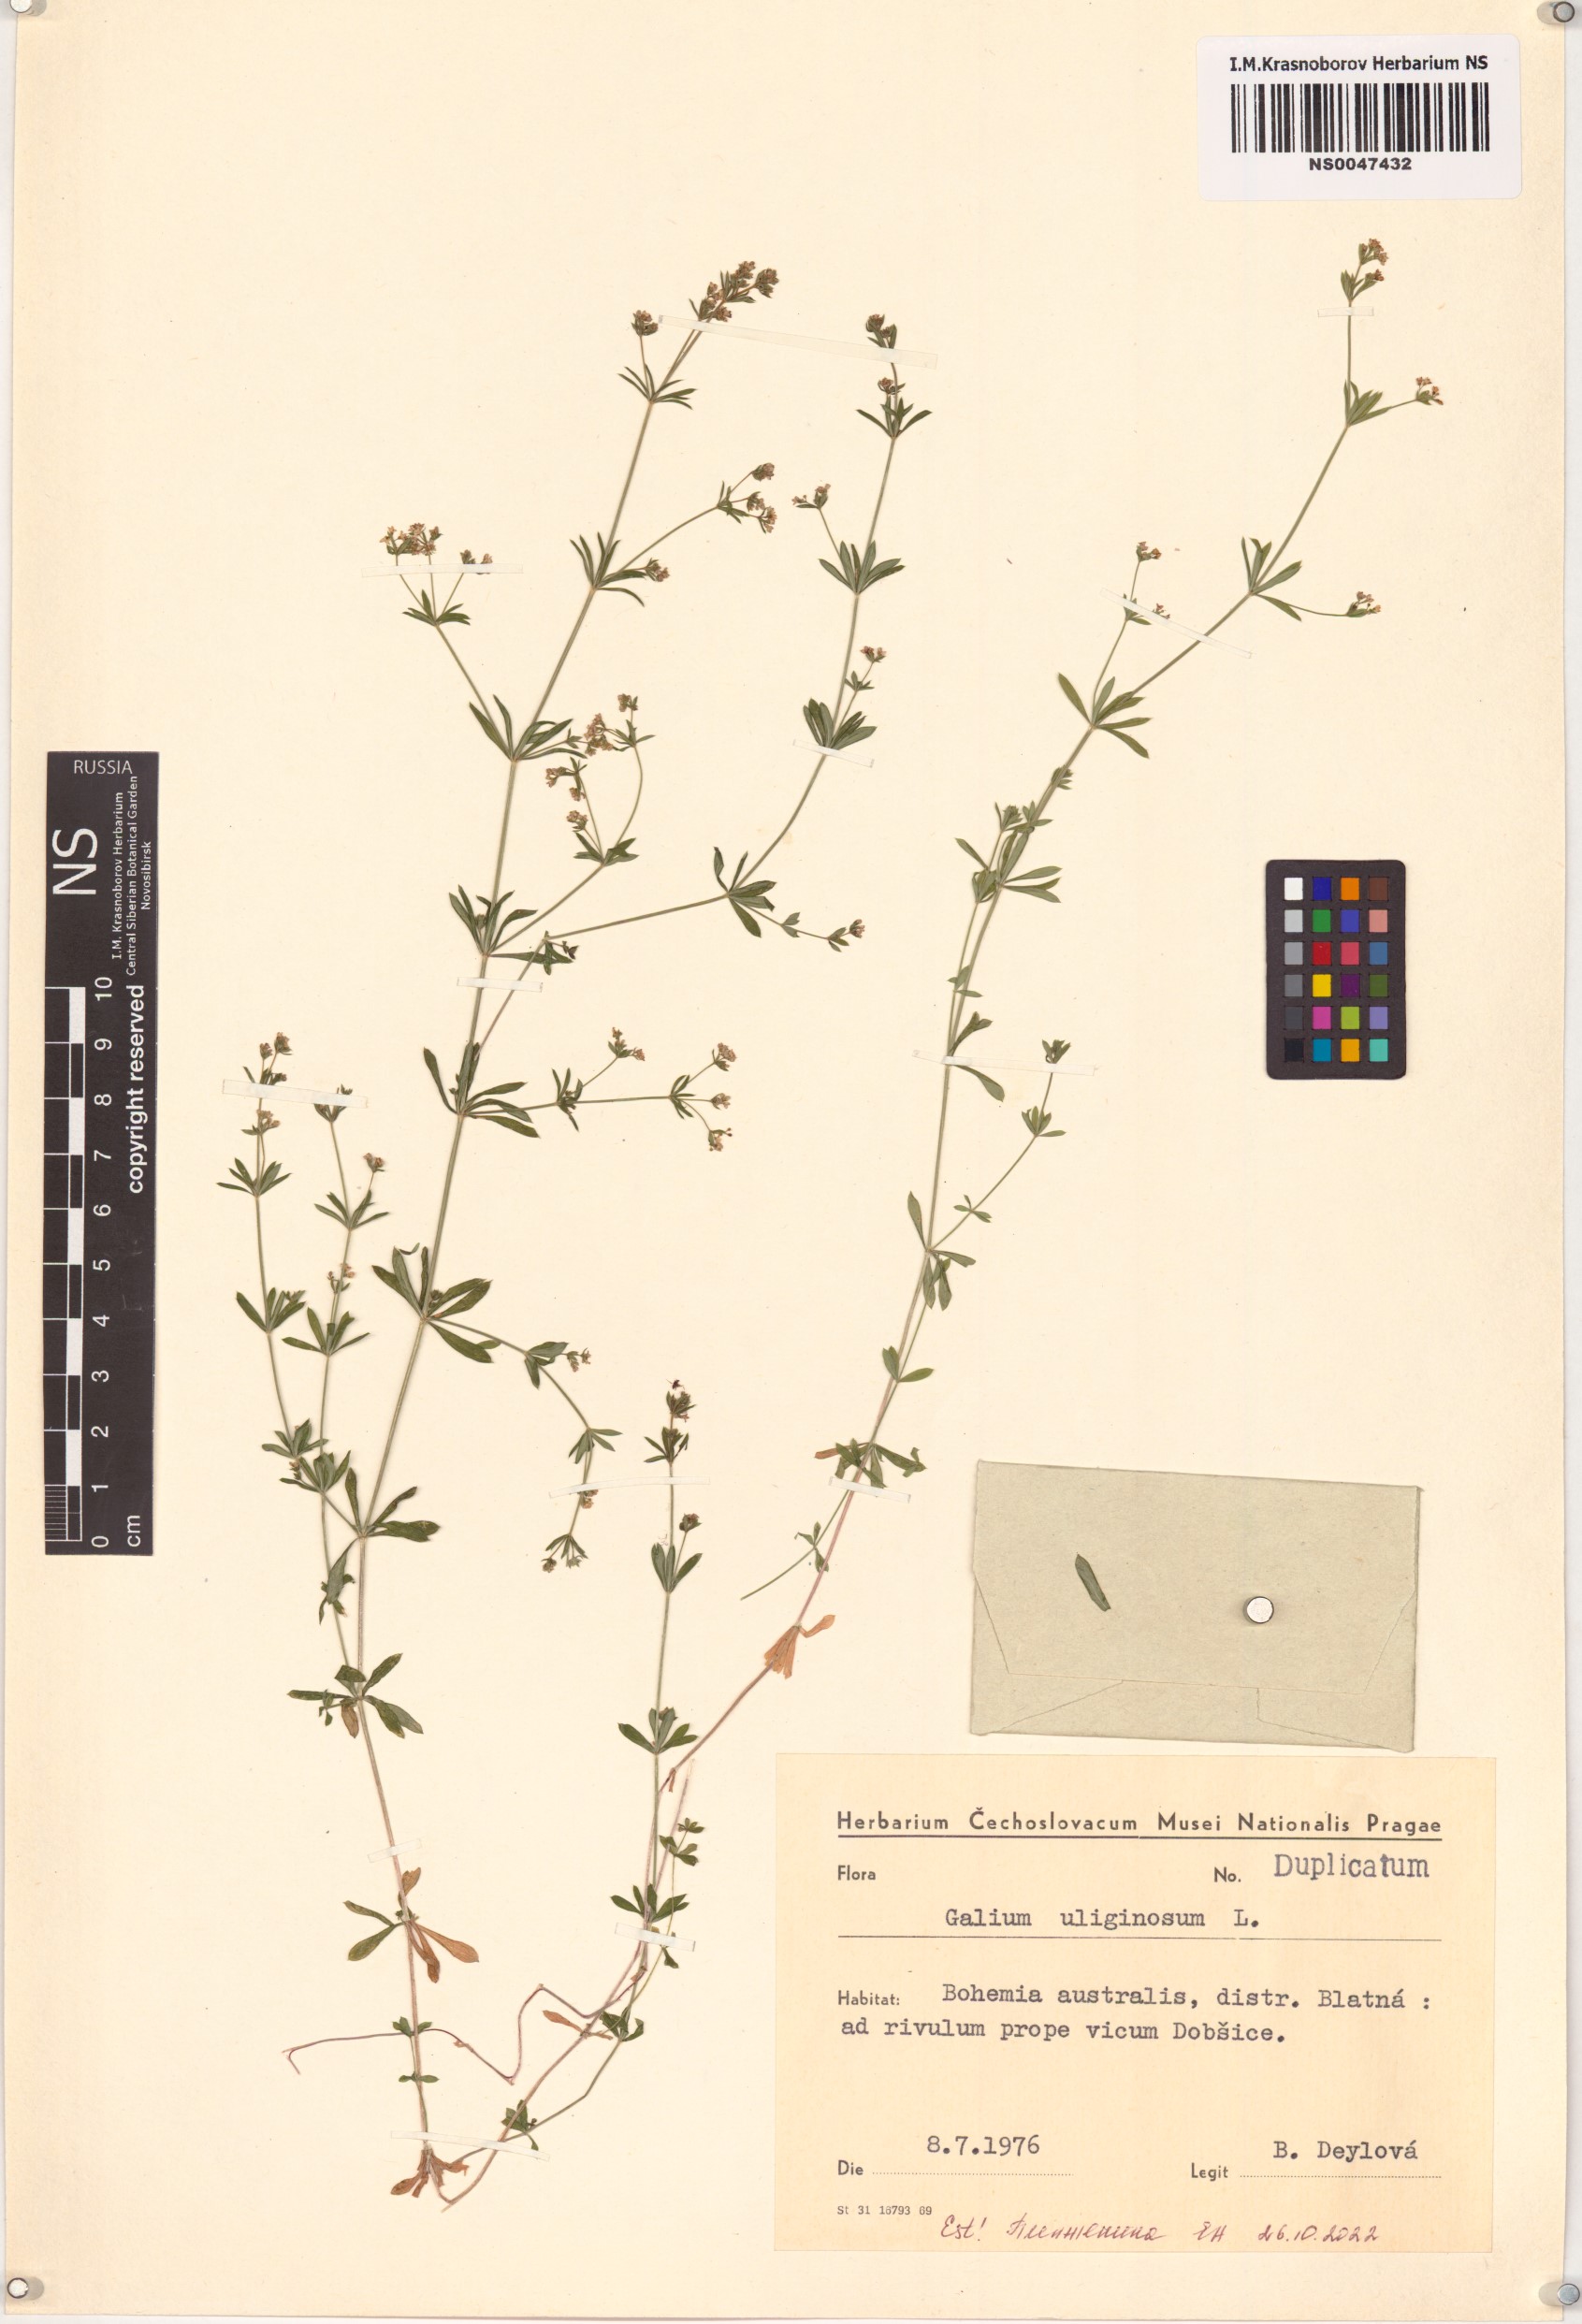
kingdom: Plantae
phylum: Tracheophyta
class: Magnoliopsida
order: Gentianales
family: Rubiaceae
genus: Galium
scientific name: Galium uliginosum
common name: Fen bedstraw
